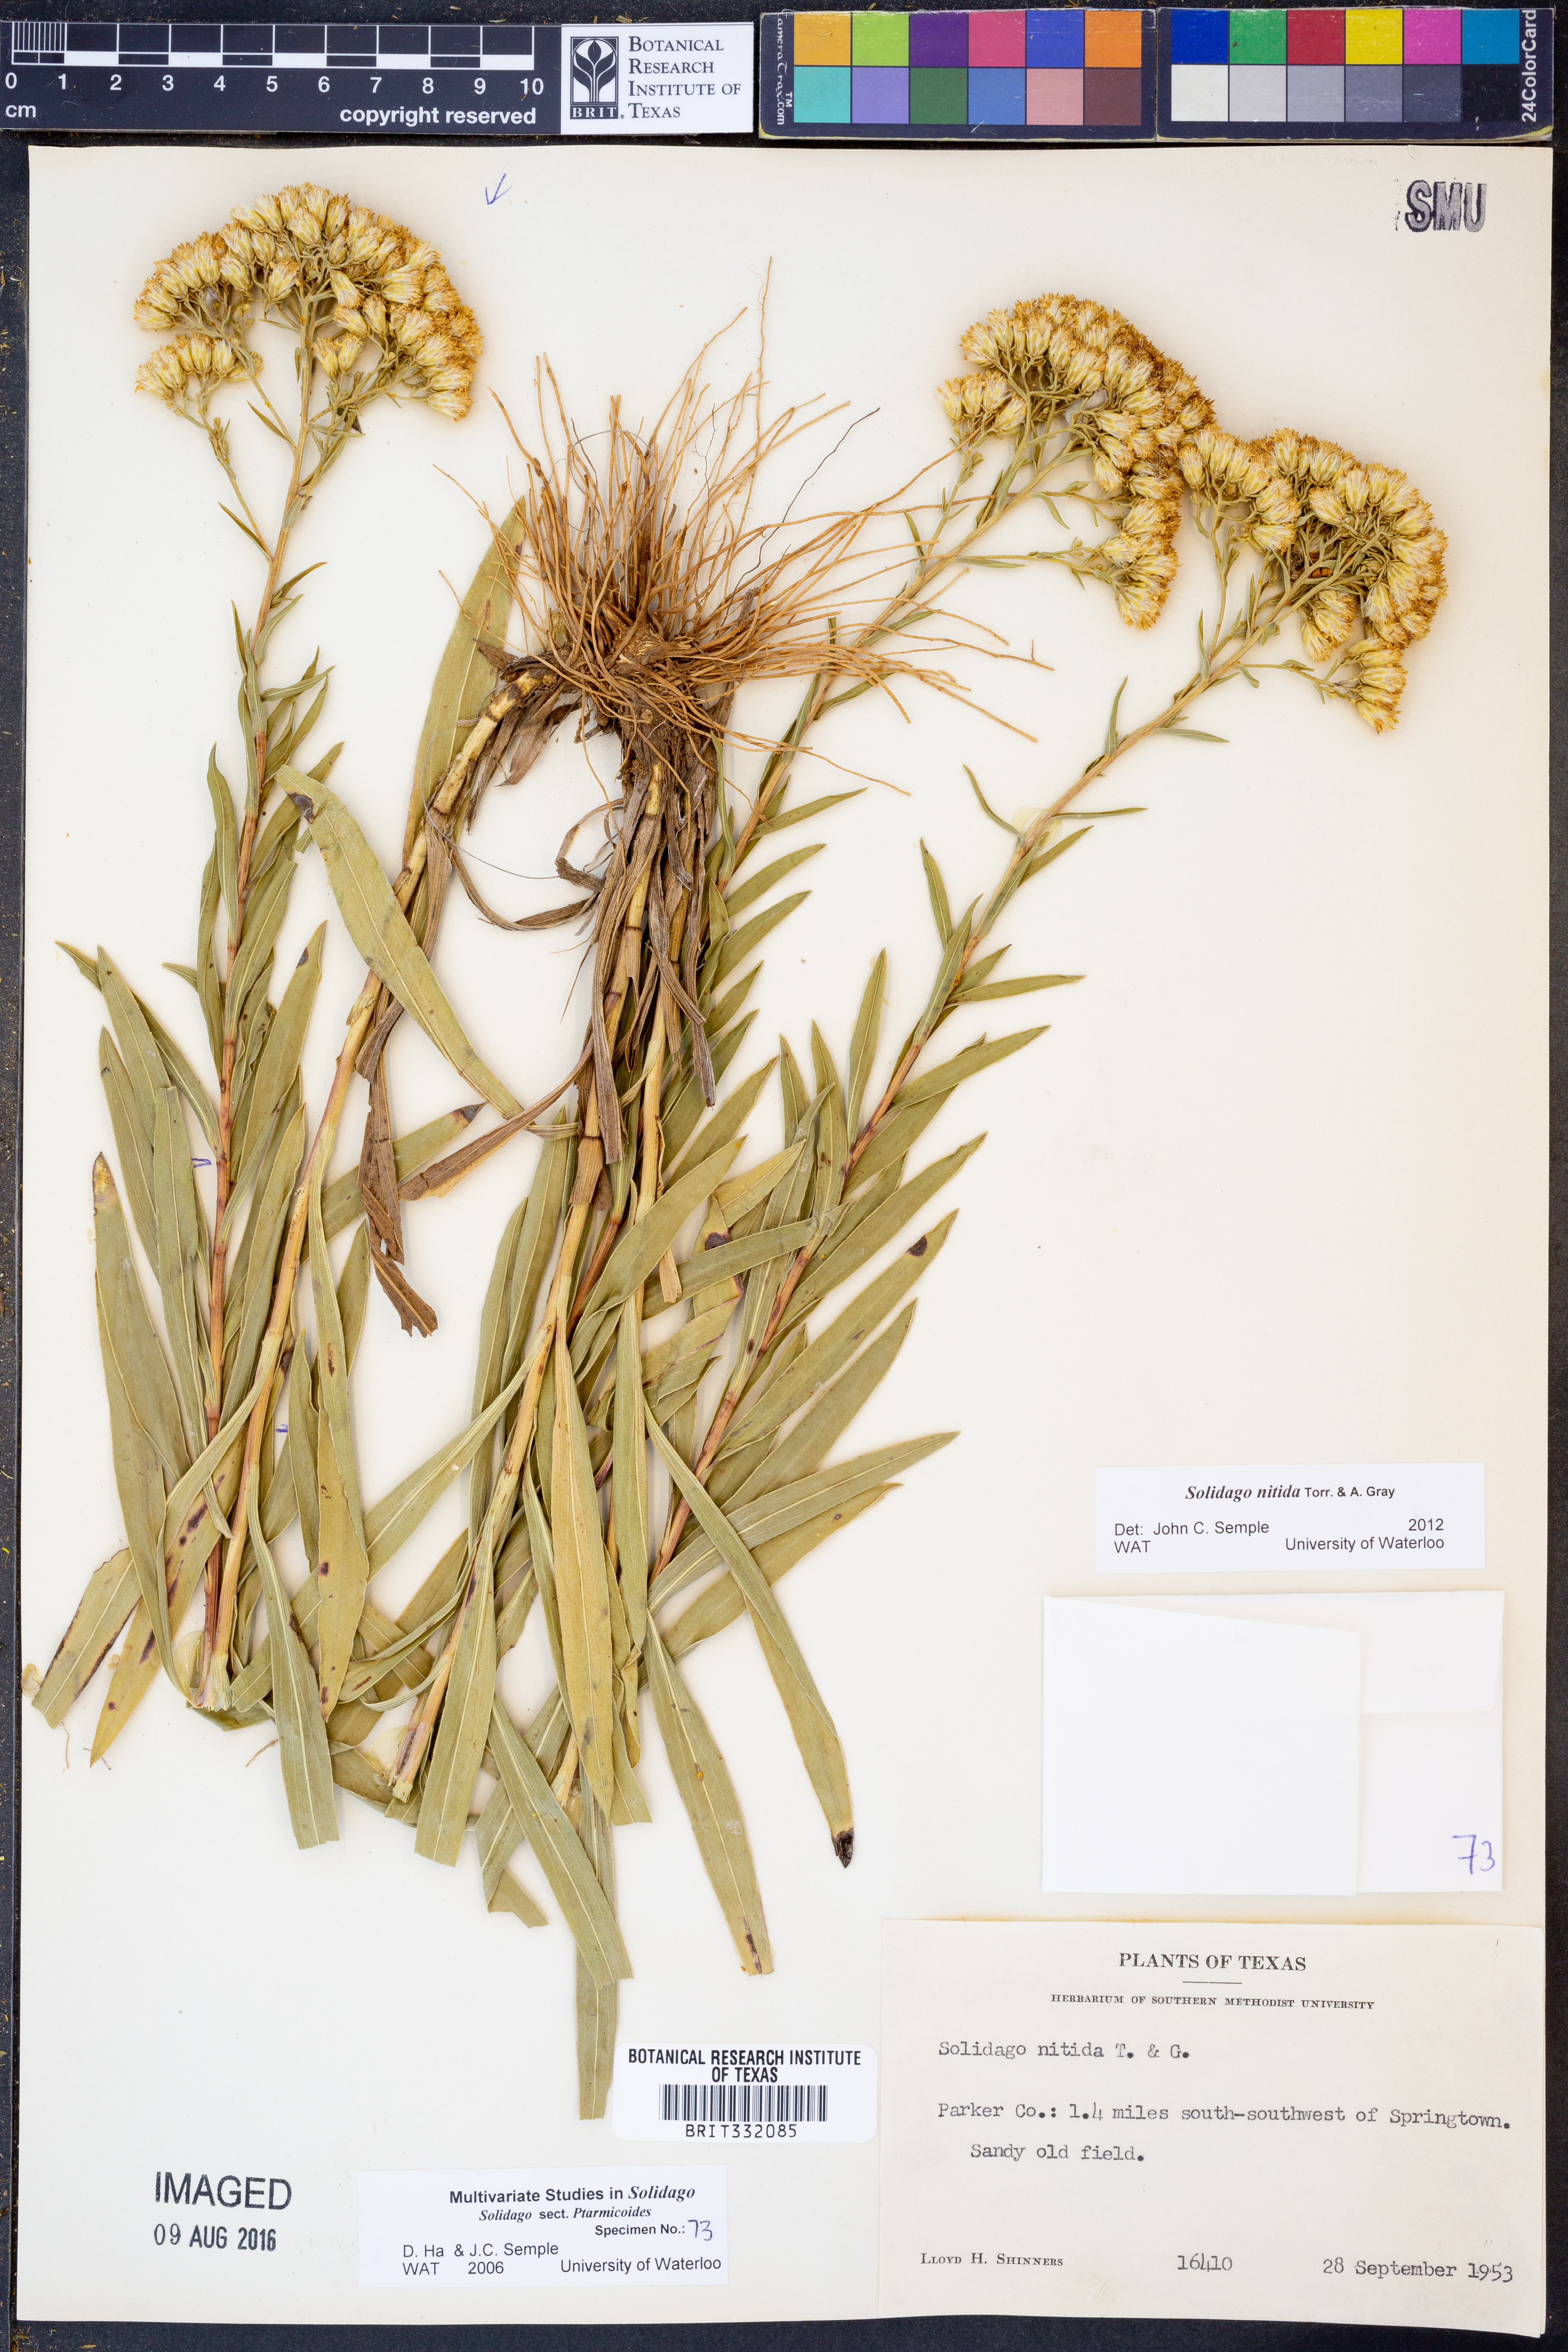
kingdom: Plantae
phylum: Tracheophyta
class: Magnoliopsida
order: Asterales
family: Asteraceae
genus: Solidago
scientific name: Solidago nitida
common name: Shiny goldenrod
